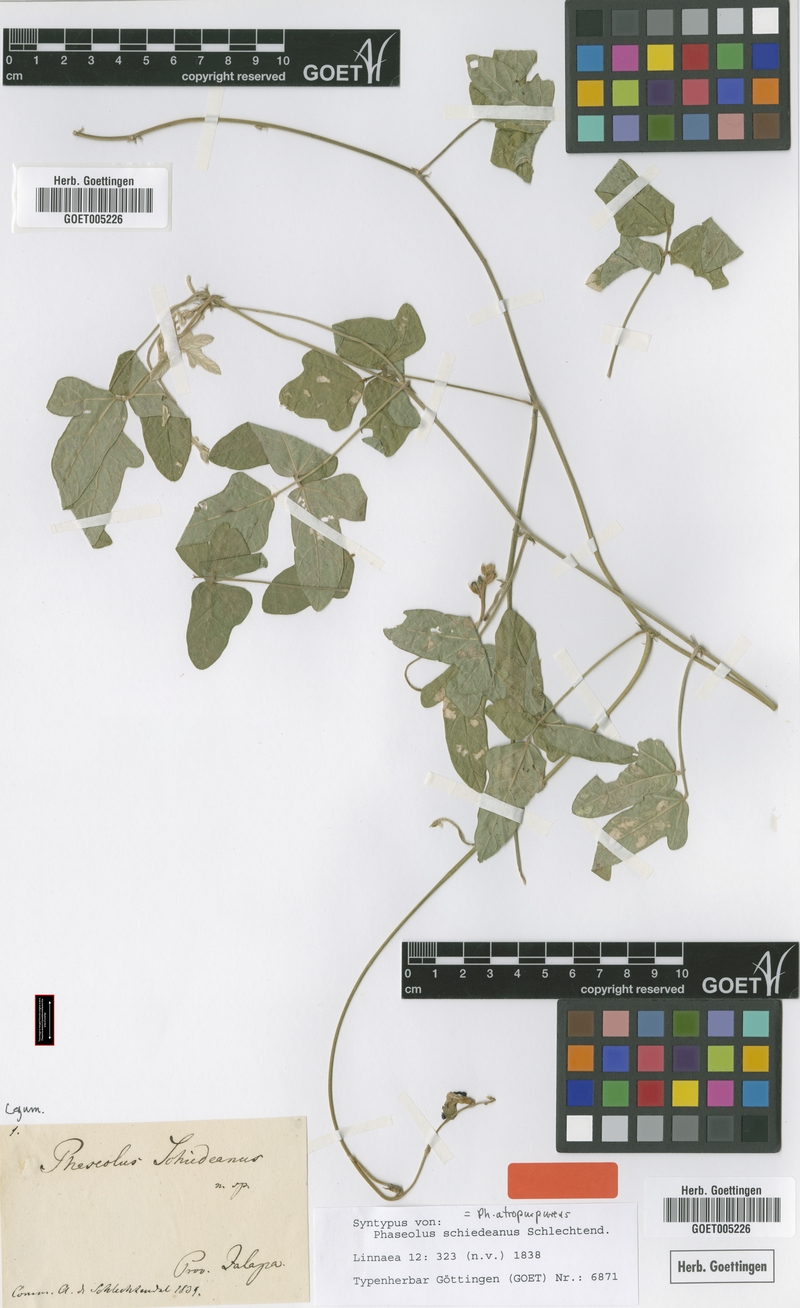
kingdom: Plantae
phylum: Tracheophyta
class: Magnoliopsida
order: Fabales
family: Fabaceae
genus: Macroptilium
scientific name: Macroptilium atropurpureum
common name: Purple bushbean
